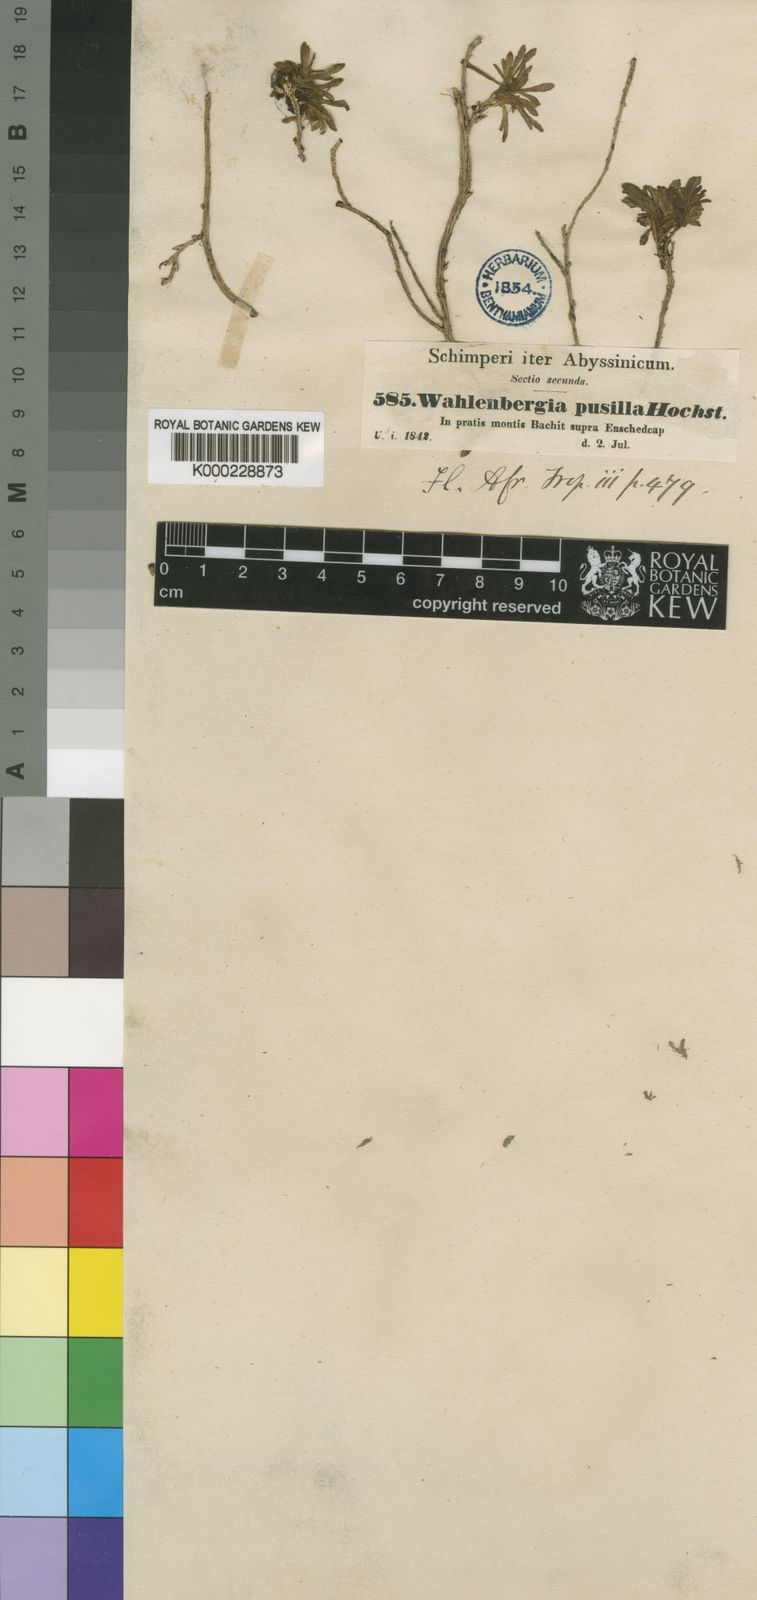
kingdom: Plantae
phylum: Tracheophyta
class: Magnoliopsida
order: Asterales
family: Campanulaceae
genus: Wahlenbergia
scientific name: Wahlenbergia pusilla
